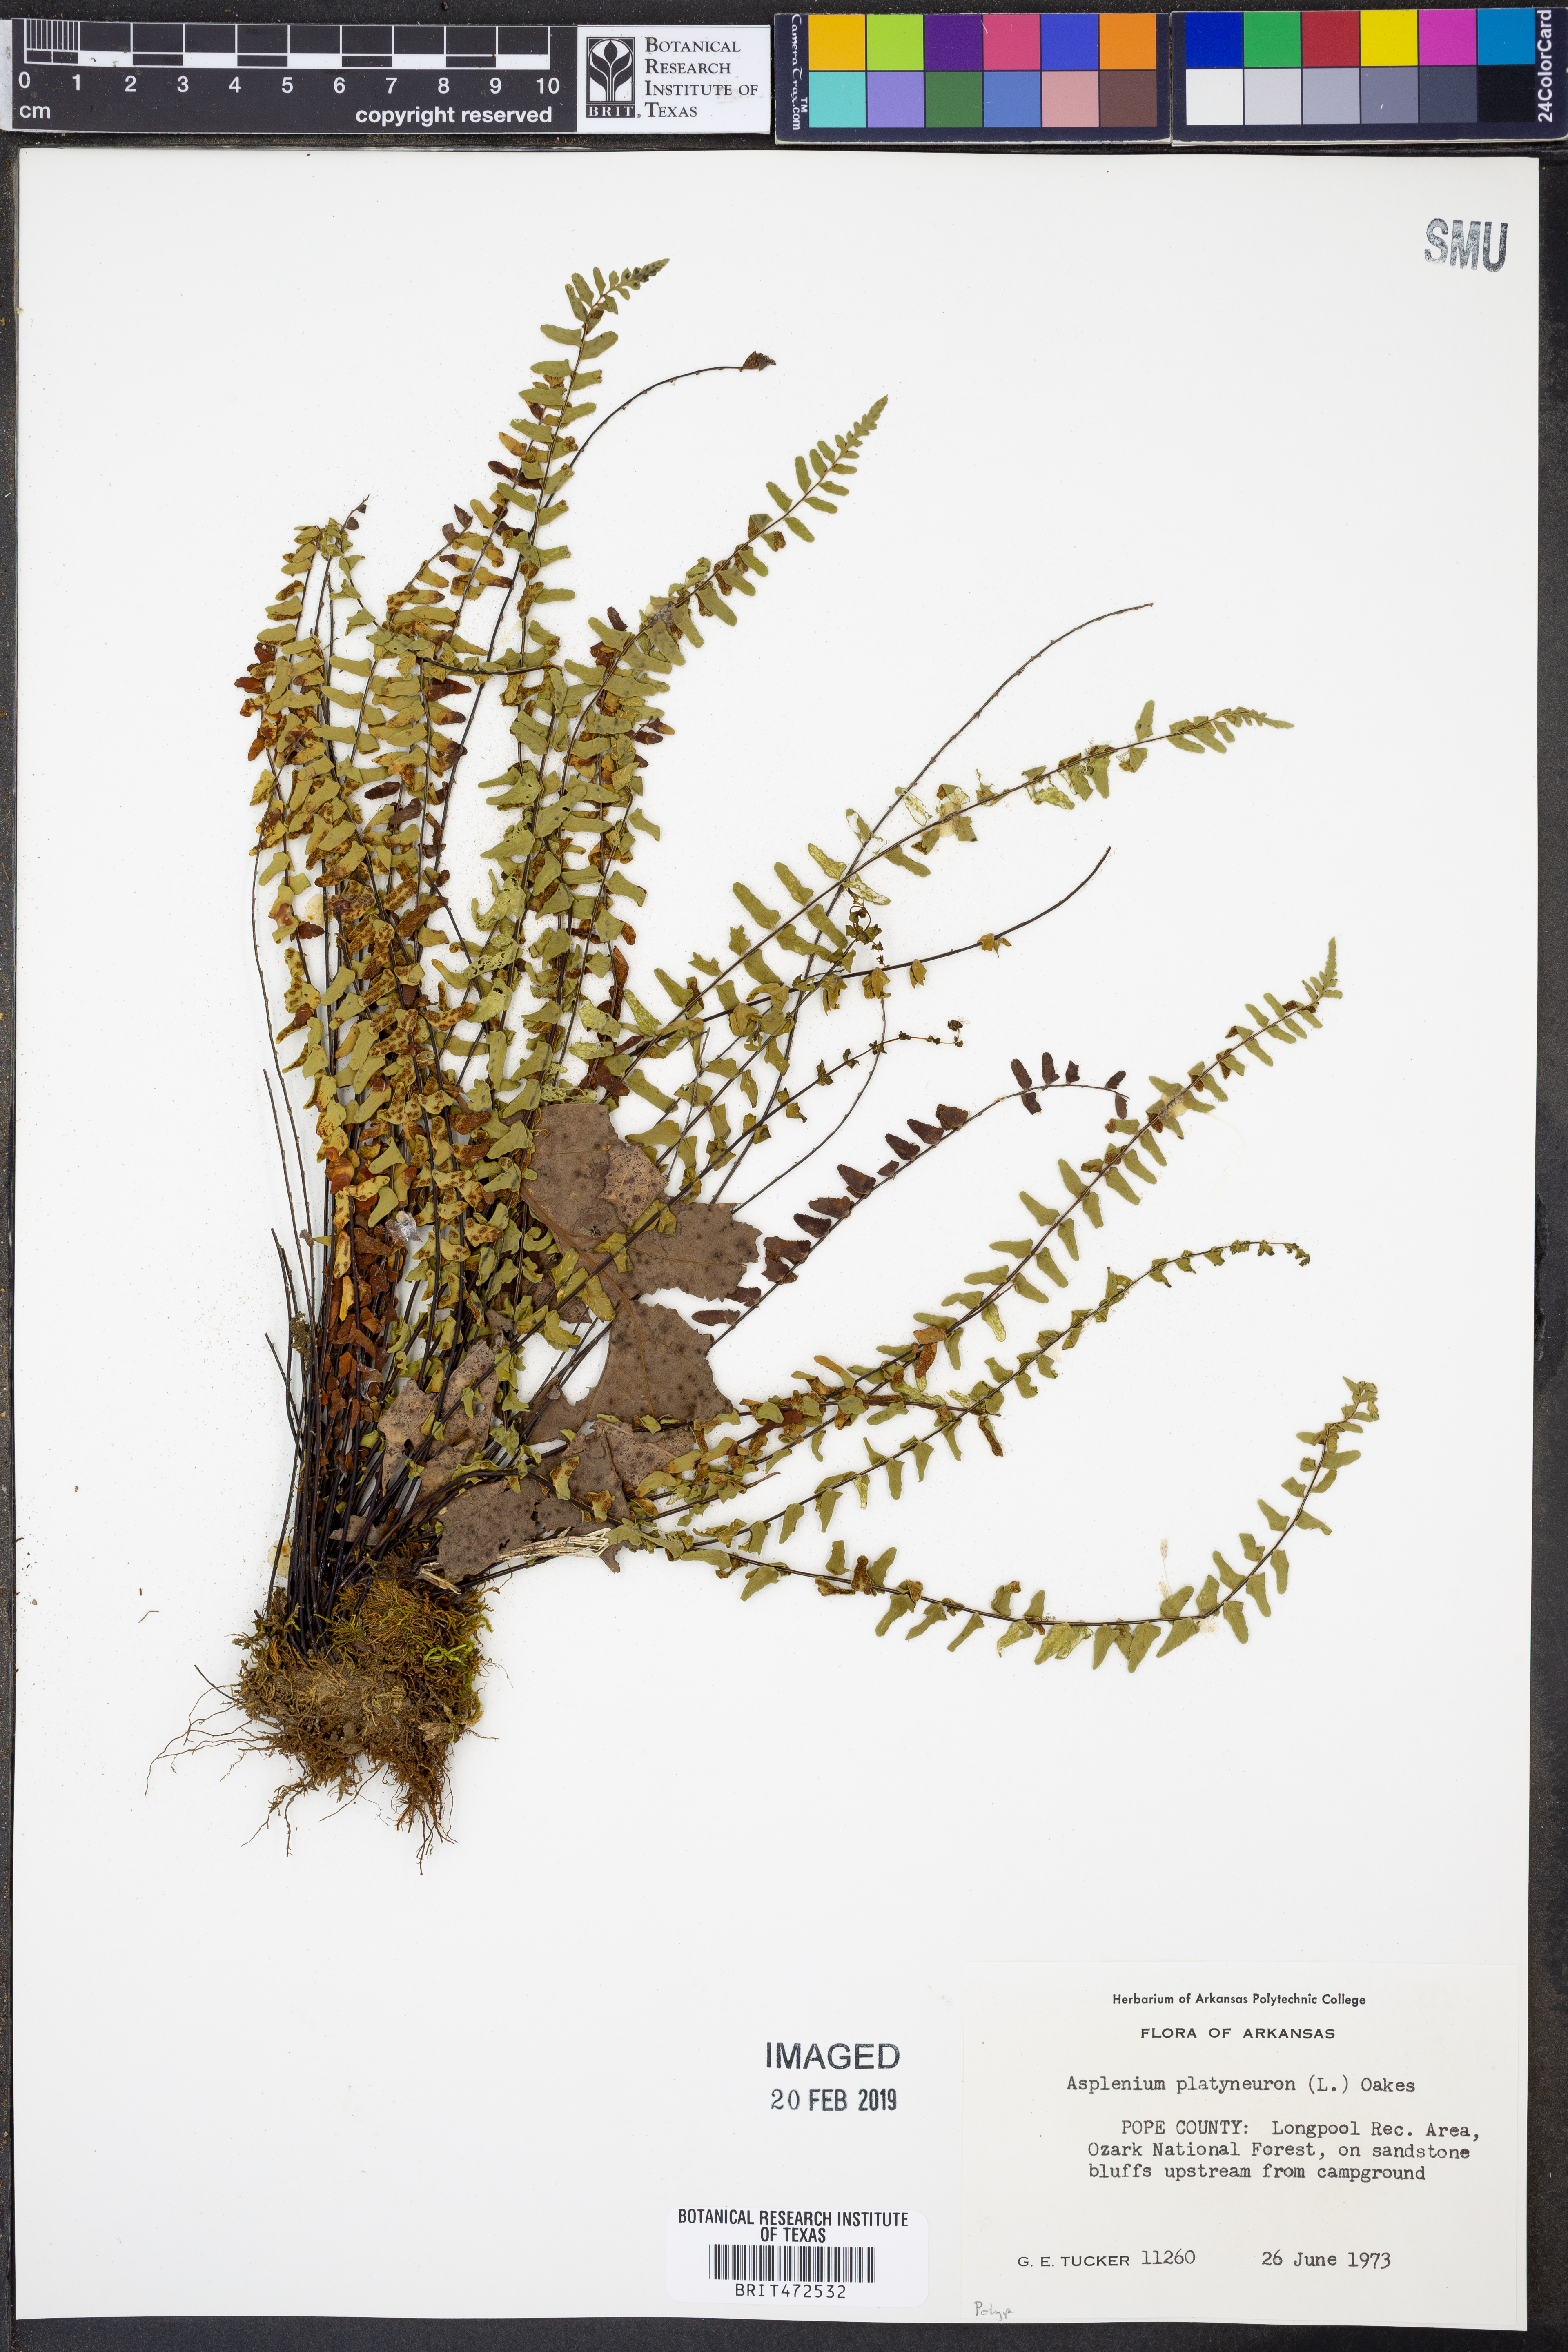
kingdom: Plantae
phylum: Tracheophyta
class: Polypodiopsida
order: Polypodiales
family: Aspleniaceae
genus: Asplenium
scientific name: Asplenium platyneuron
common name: Ebony spleenwort
